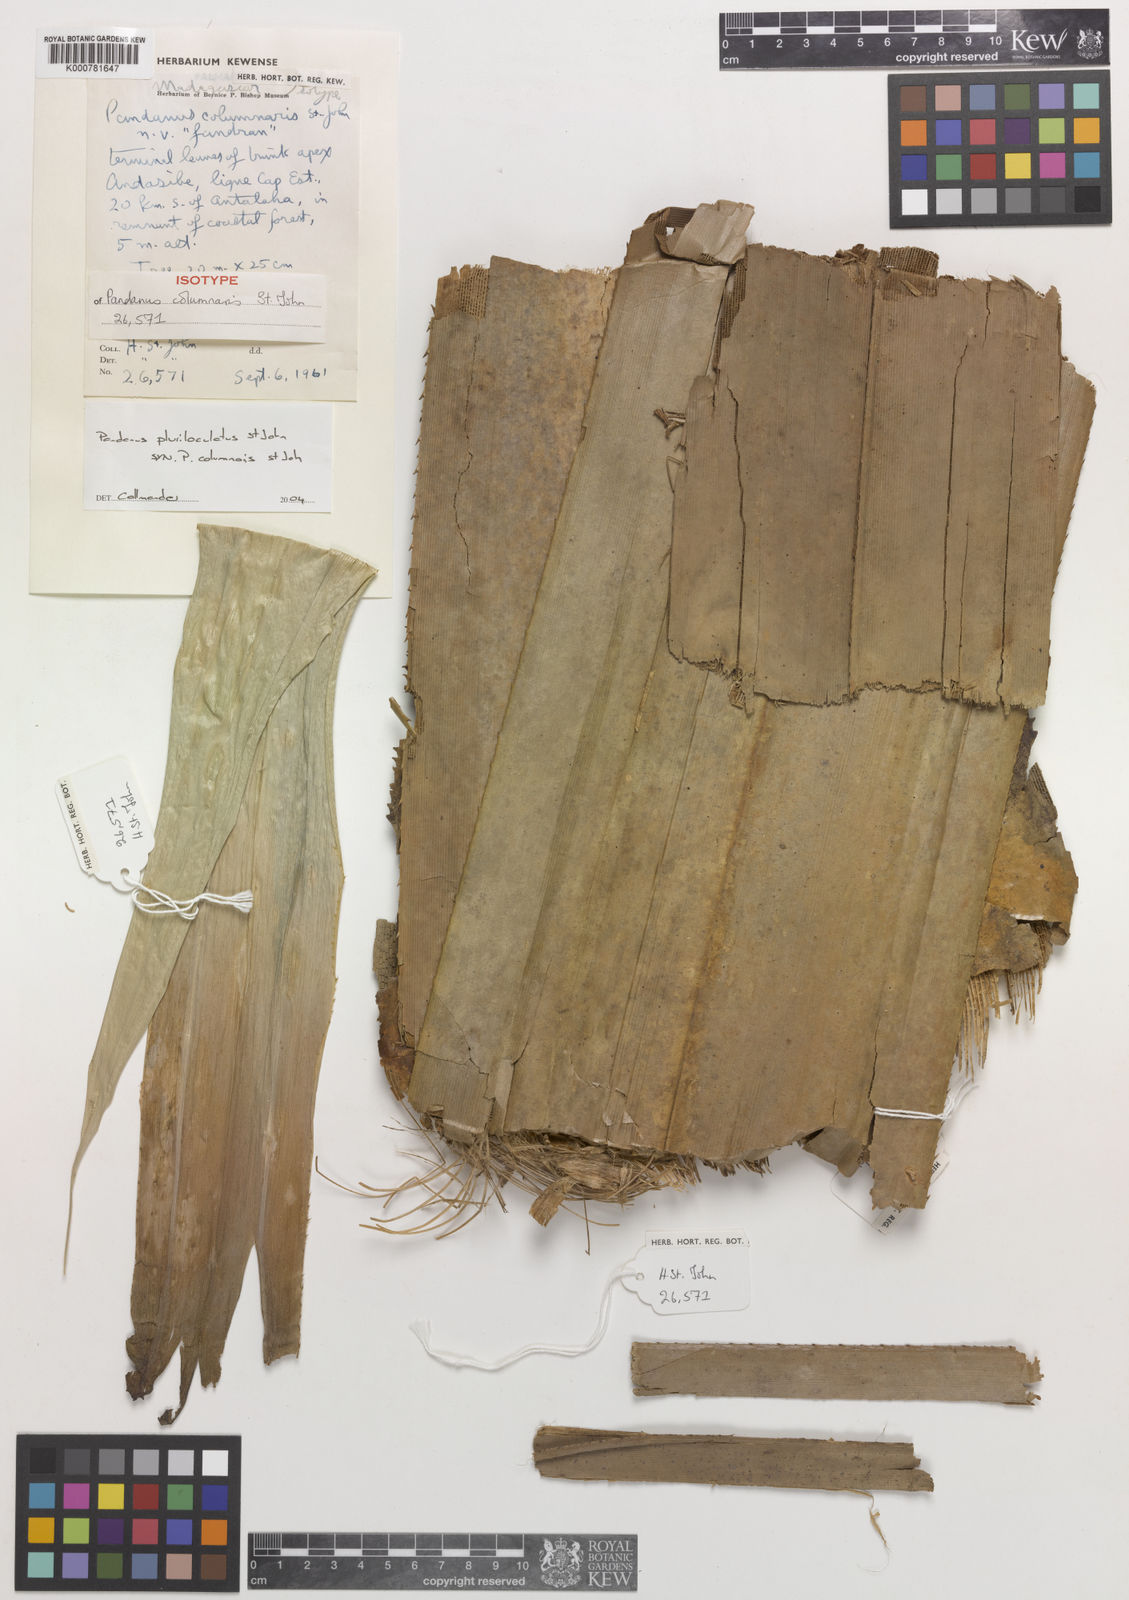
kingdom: Plantae
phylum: Tracheophyta
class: Liliopsida
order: Pandanales
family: Pandanaceae
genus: Pandanus
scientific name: Pandanus pluriloculatus
